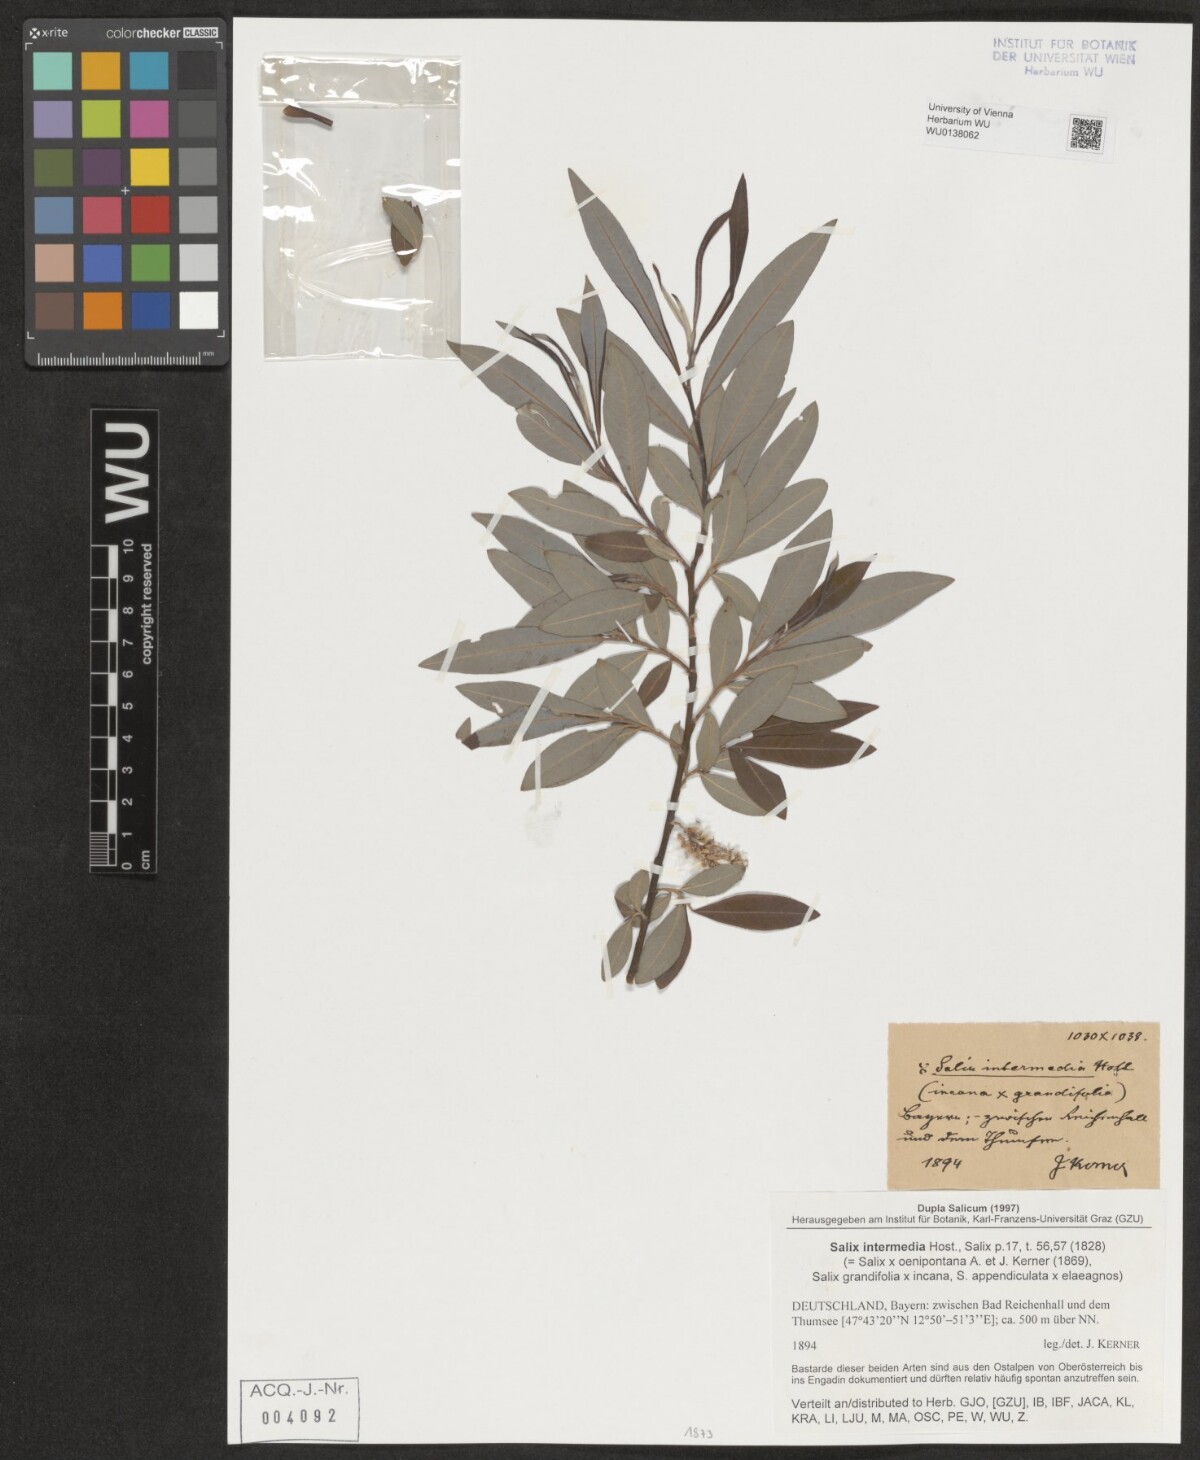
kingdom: Plantae
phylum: Tracheophyta
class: Magnoliopsida
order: Malpighiales
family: Salicaceae
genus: Salix
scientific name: Salix intermedia
